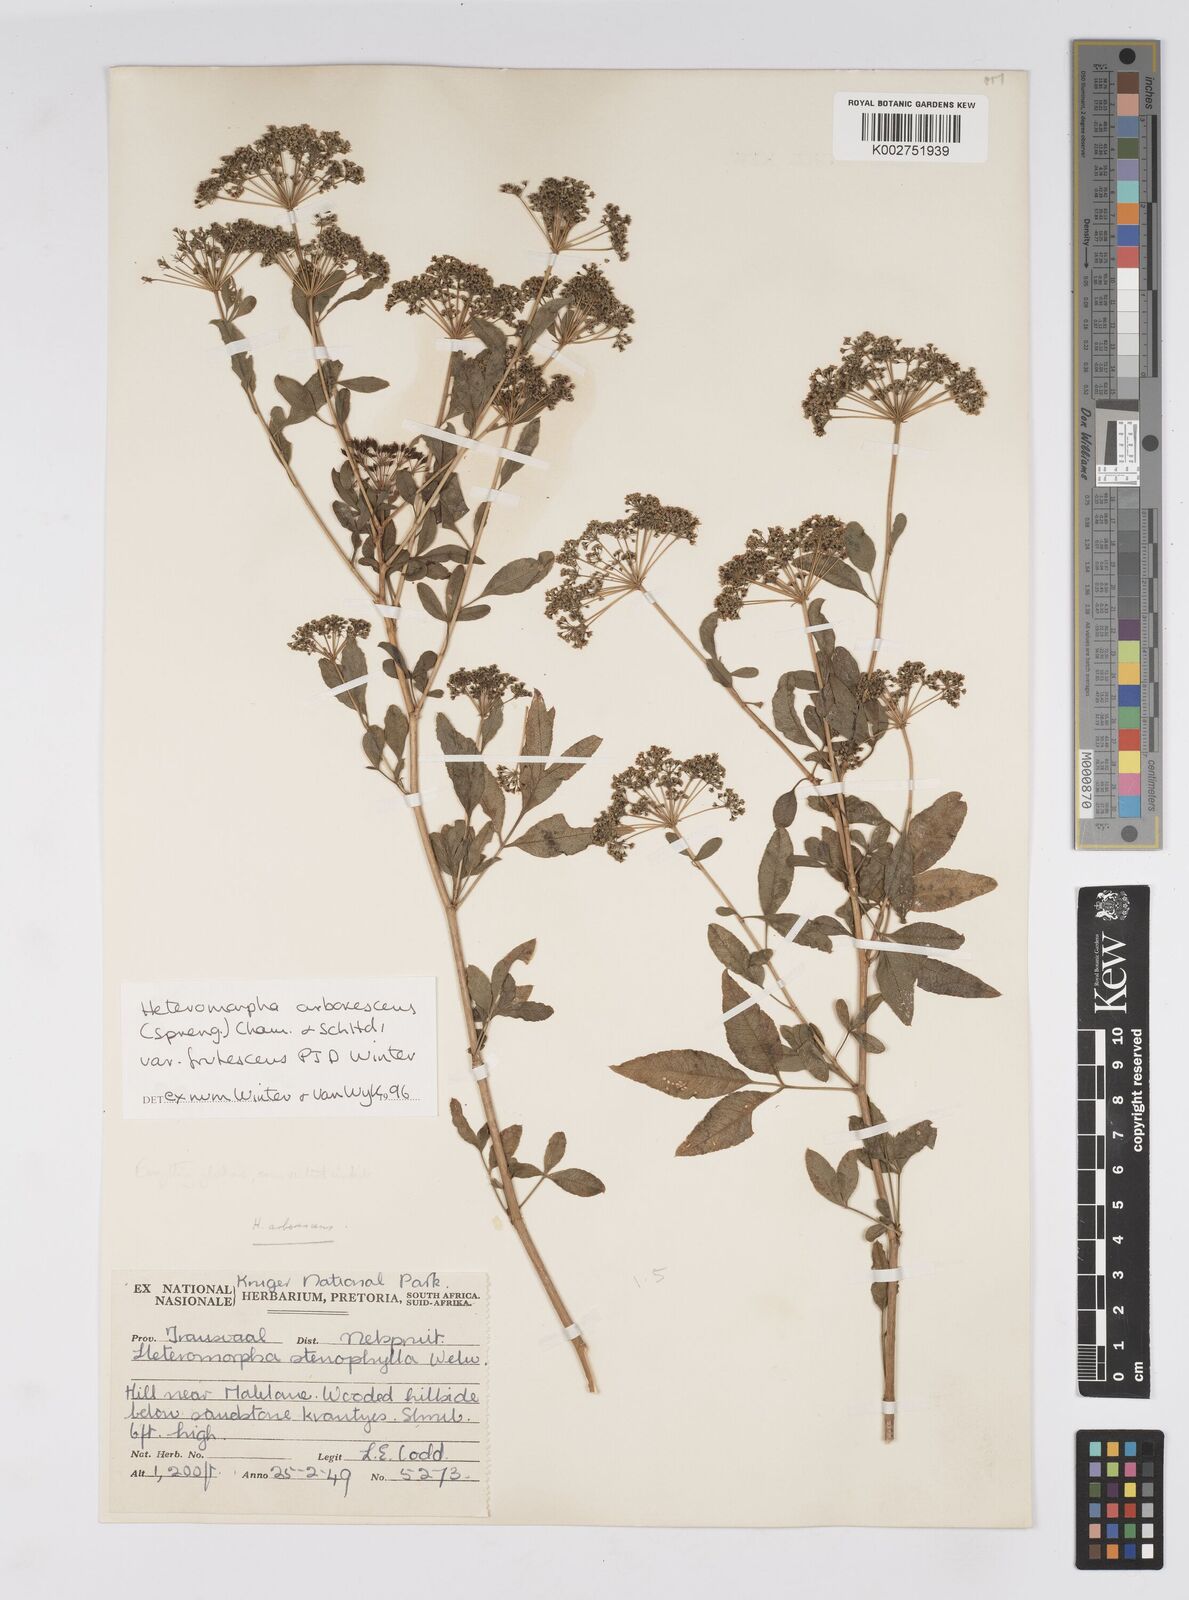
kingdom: Plantae
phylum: Tracheophyta
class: Magnoliopsida
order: Apiales
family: Apiaceae
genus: Heteromorpha
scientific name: Heteromorpha arborescens
